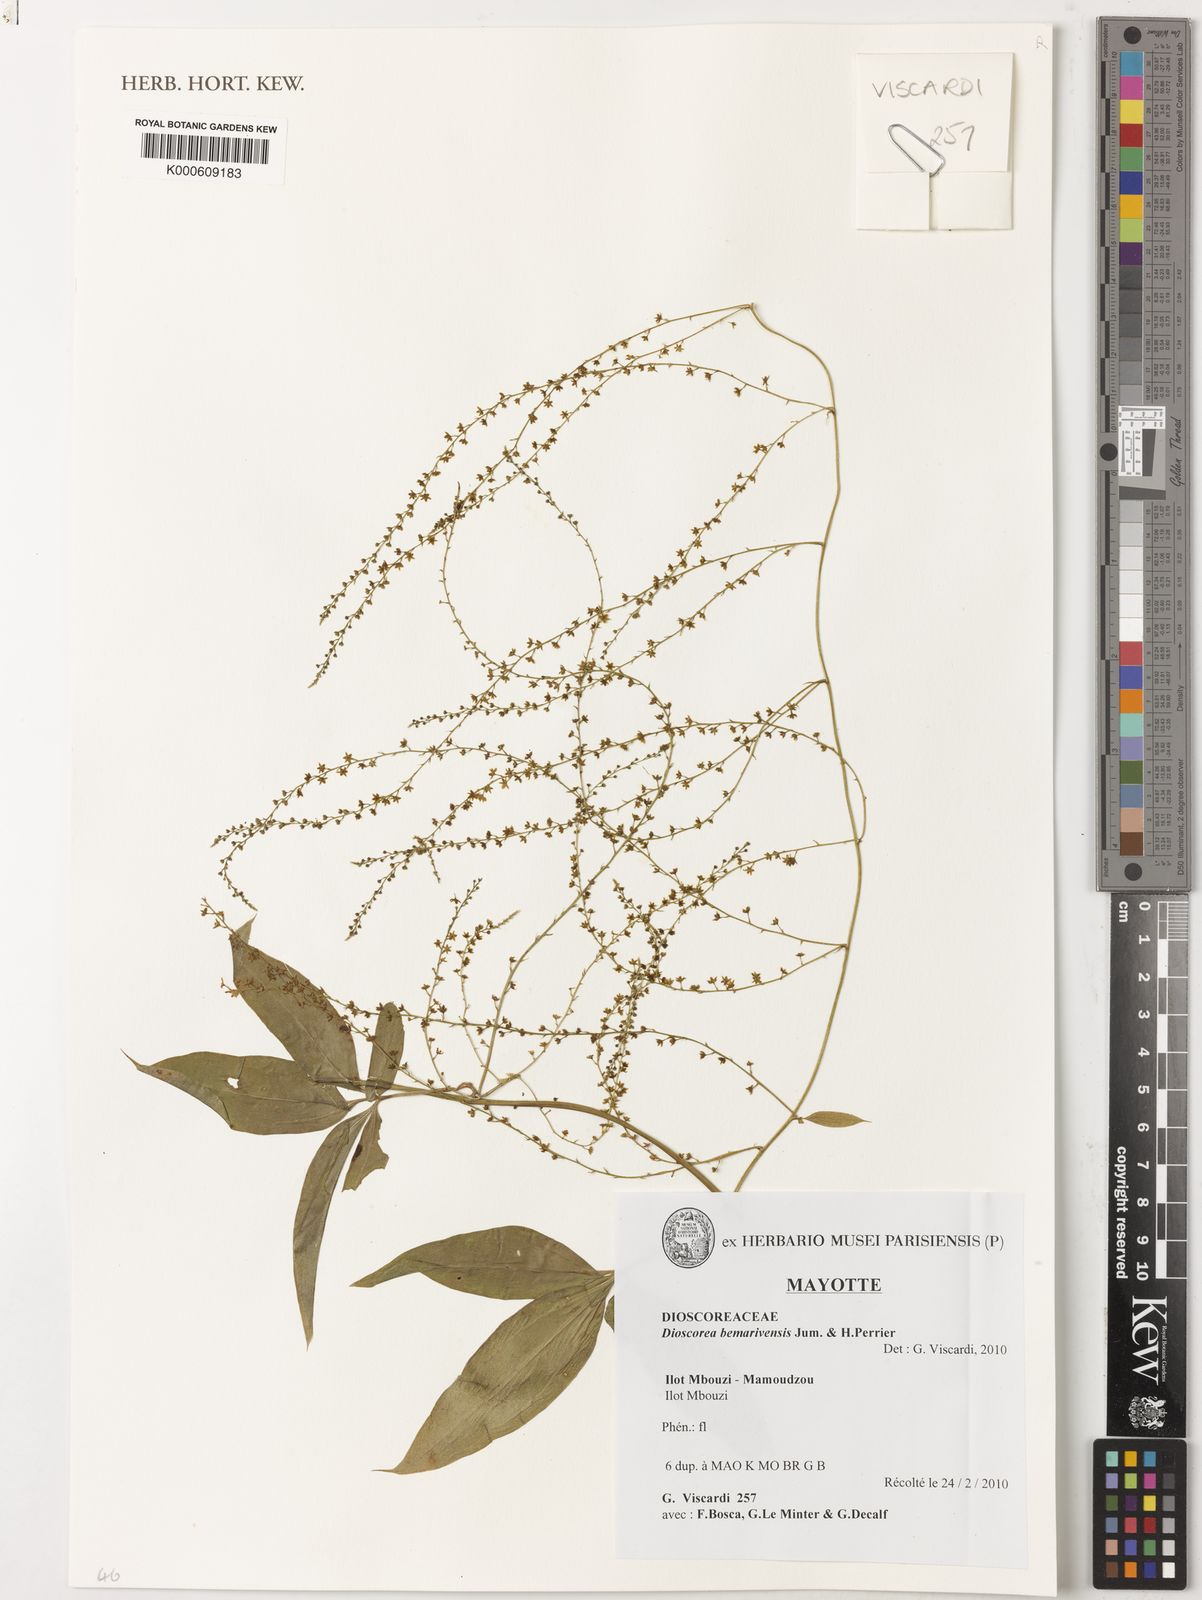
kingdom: Plantae
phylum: Tracheophyta
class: Liliopsida
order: Dioscoreales
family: Dioscoreaceae
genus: Dioscorea
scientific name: Dioscorea bemarivensis
